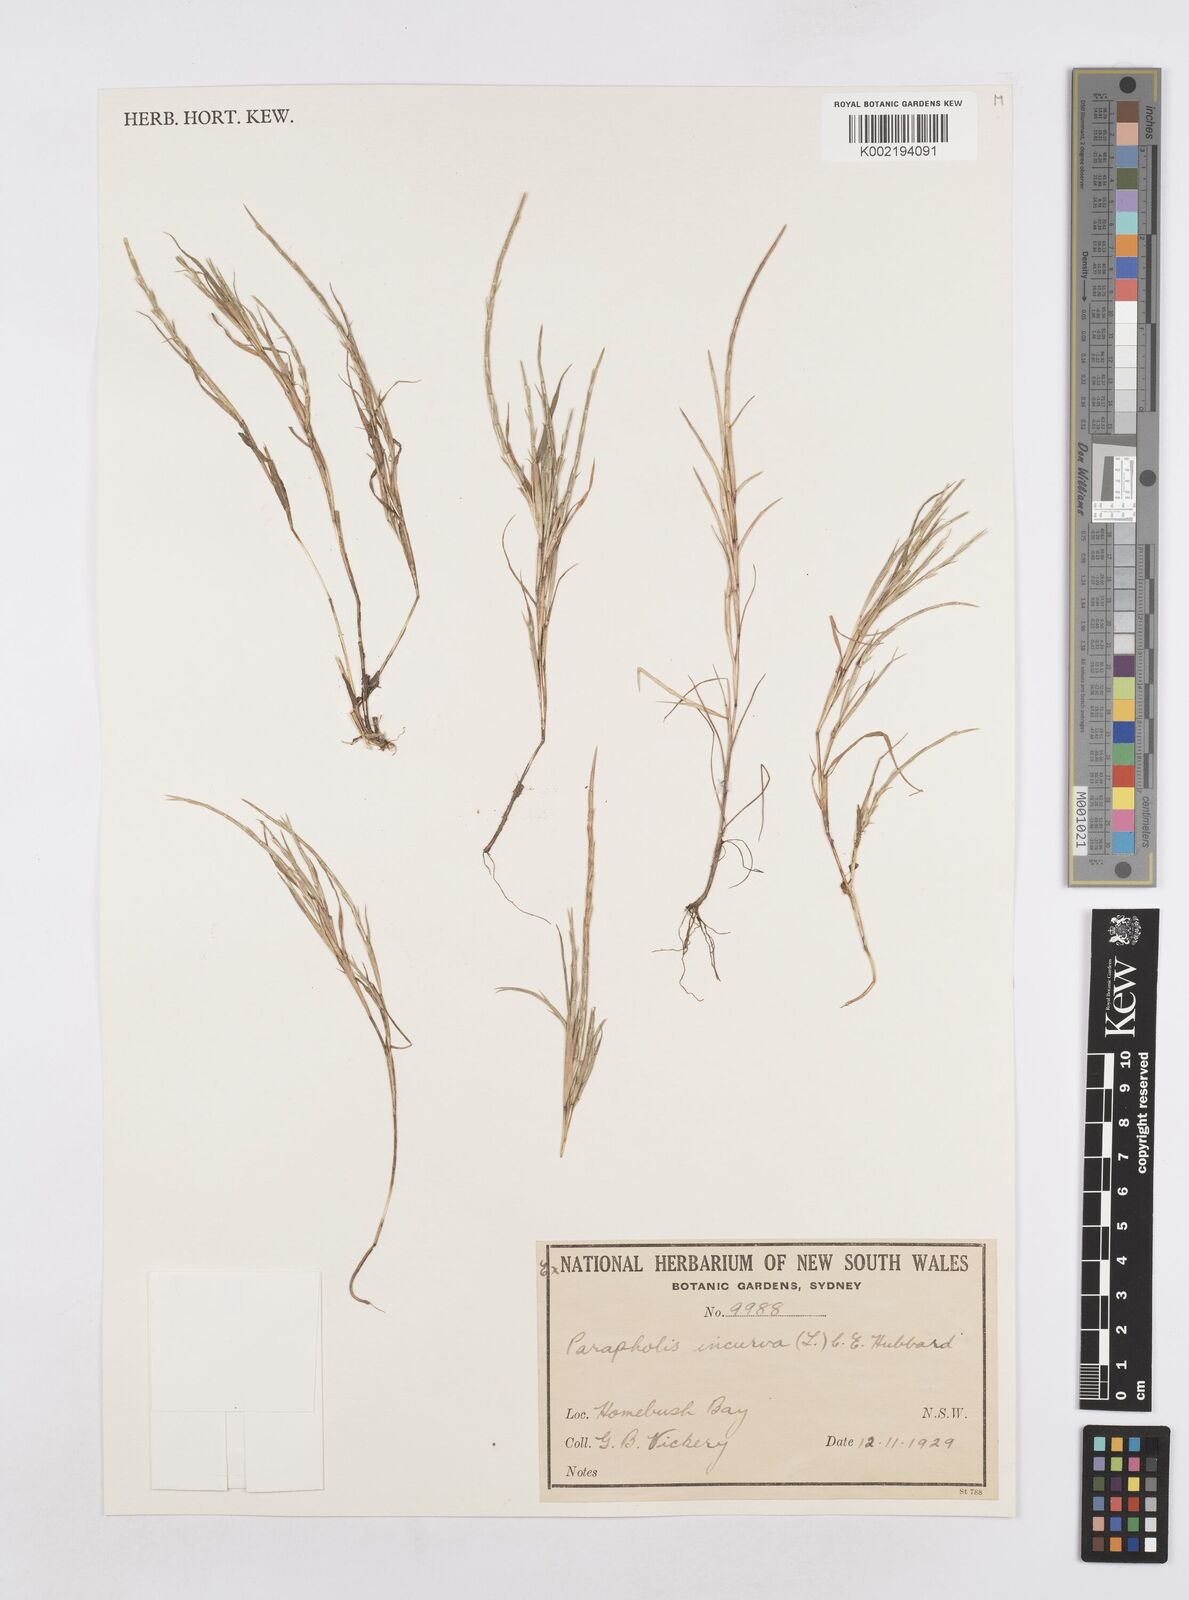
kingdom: Plantae
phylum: Tracheophyta
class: Liliopsida
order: Poales
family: Poaceae
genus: Parapholis
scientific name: Parapholis strigosa
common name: Hard-grass
